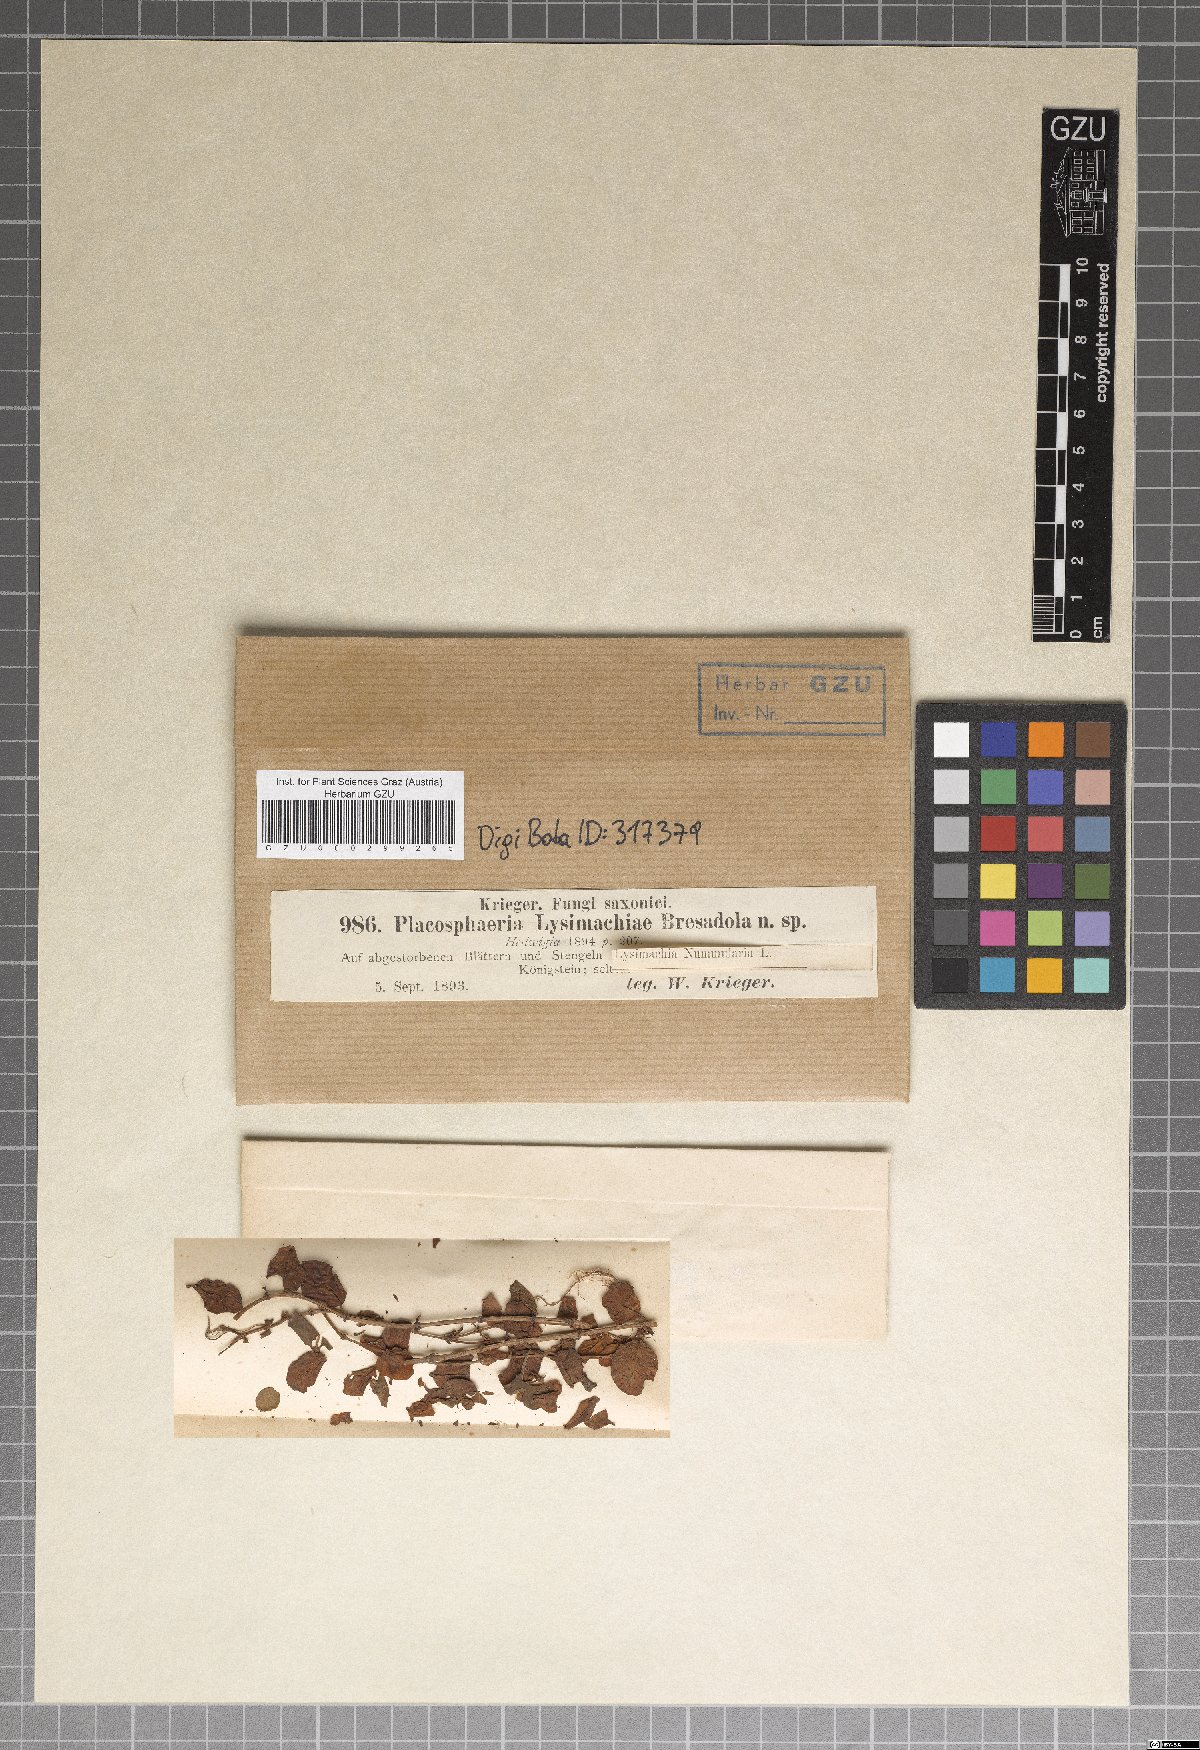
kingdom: Fungi
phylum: Ascomycota
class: Dothideomycetes
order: Dothideales
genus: Placosphaeria
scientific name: Placosphaeria
